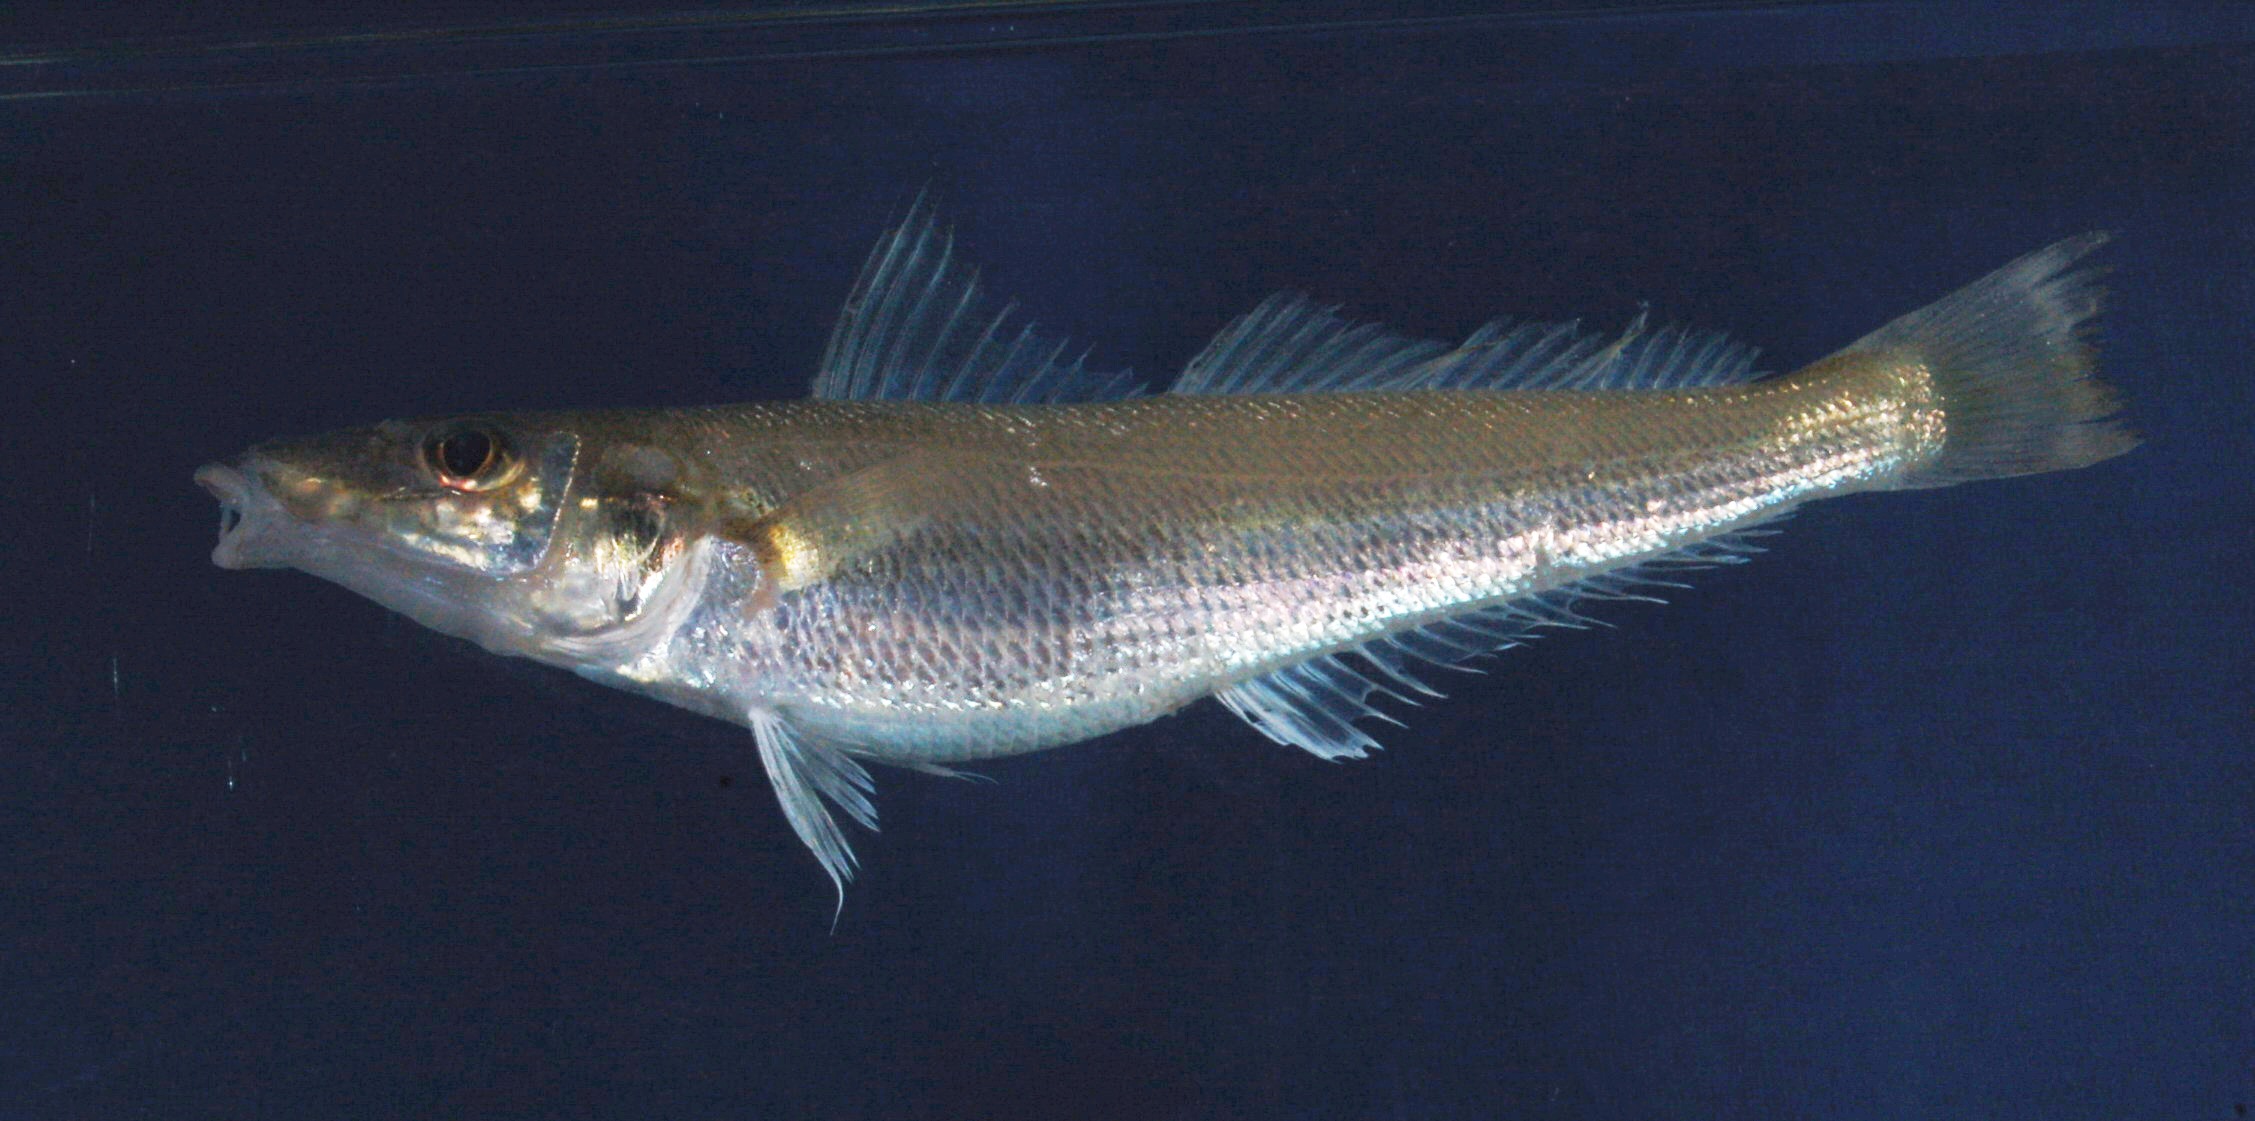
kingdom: Animalia
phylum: Chordata
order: Perciformes
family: Sillaginidae
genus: Sillago
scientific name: Sillago sihama
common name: Silver sillago
